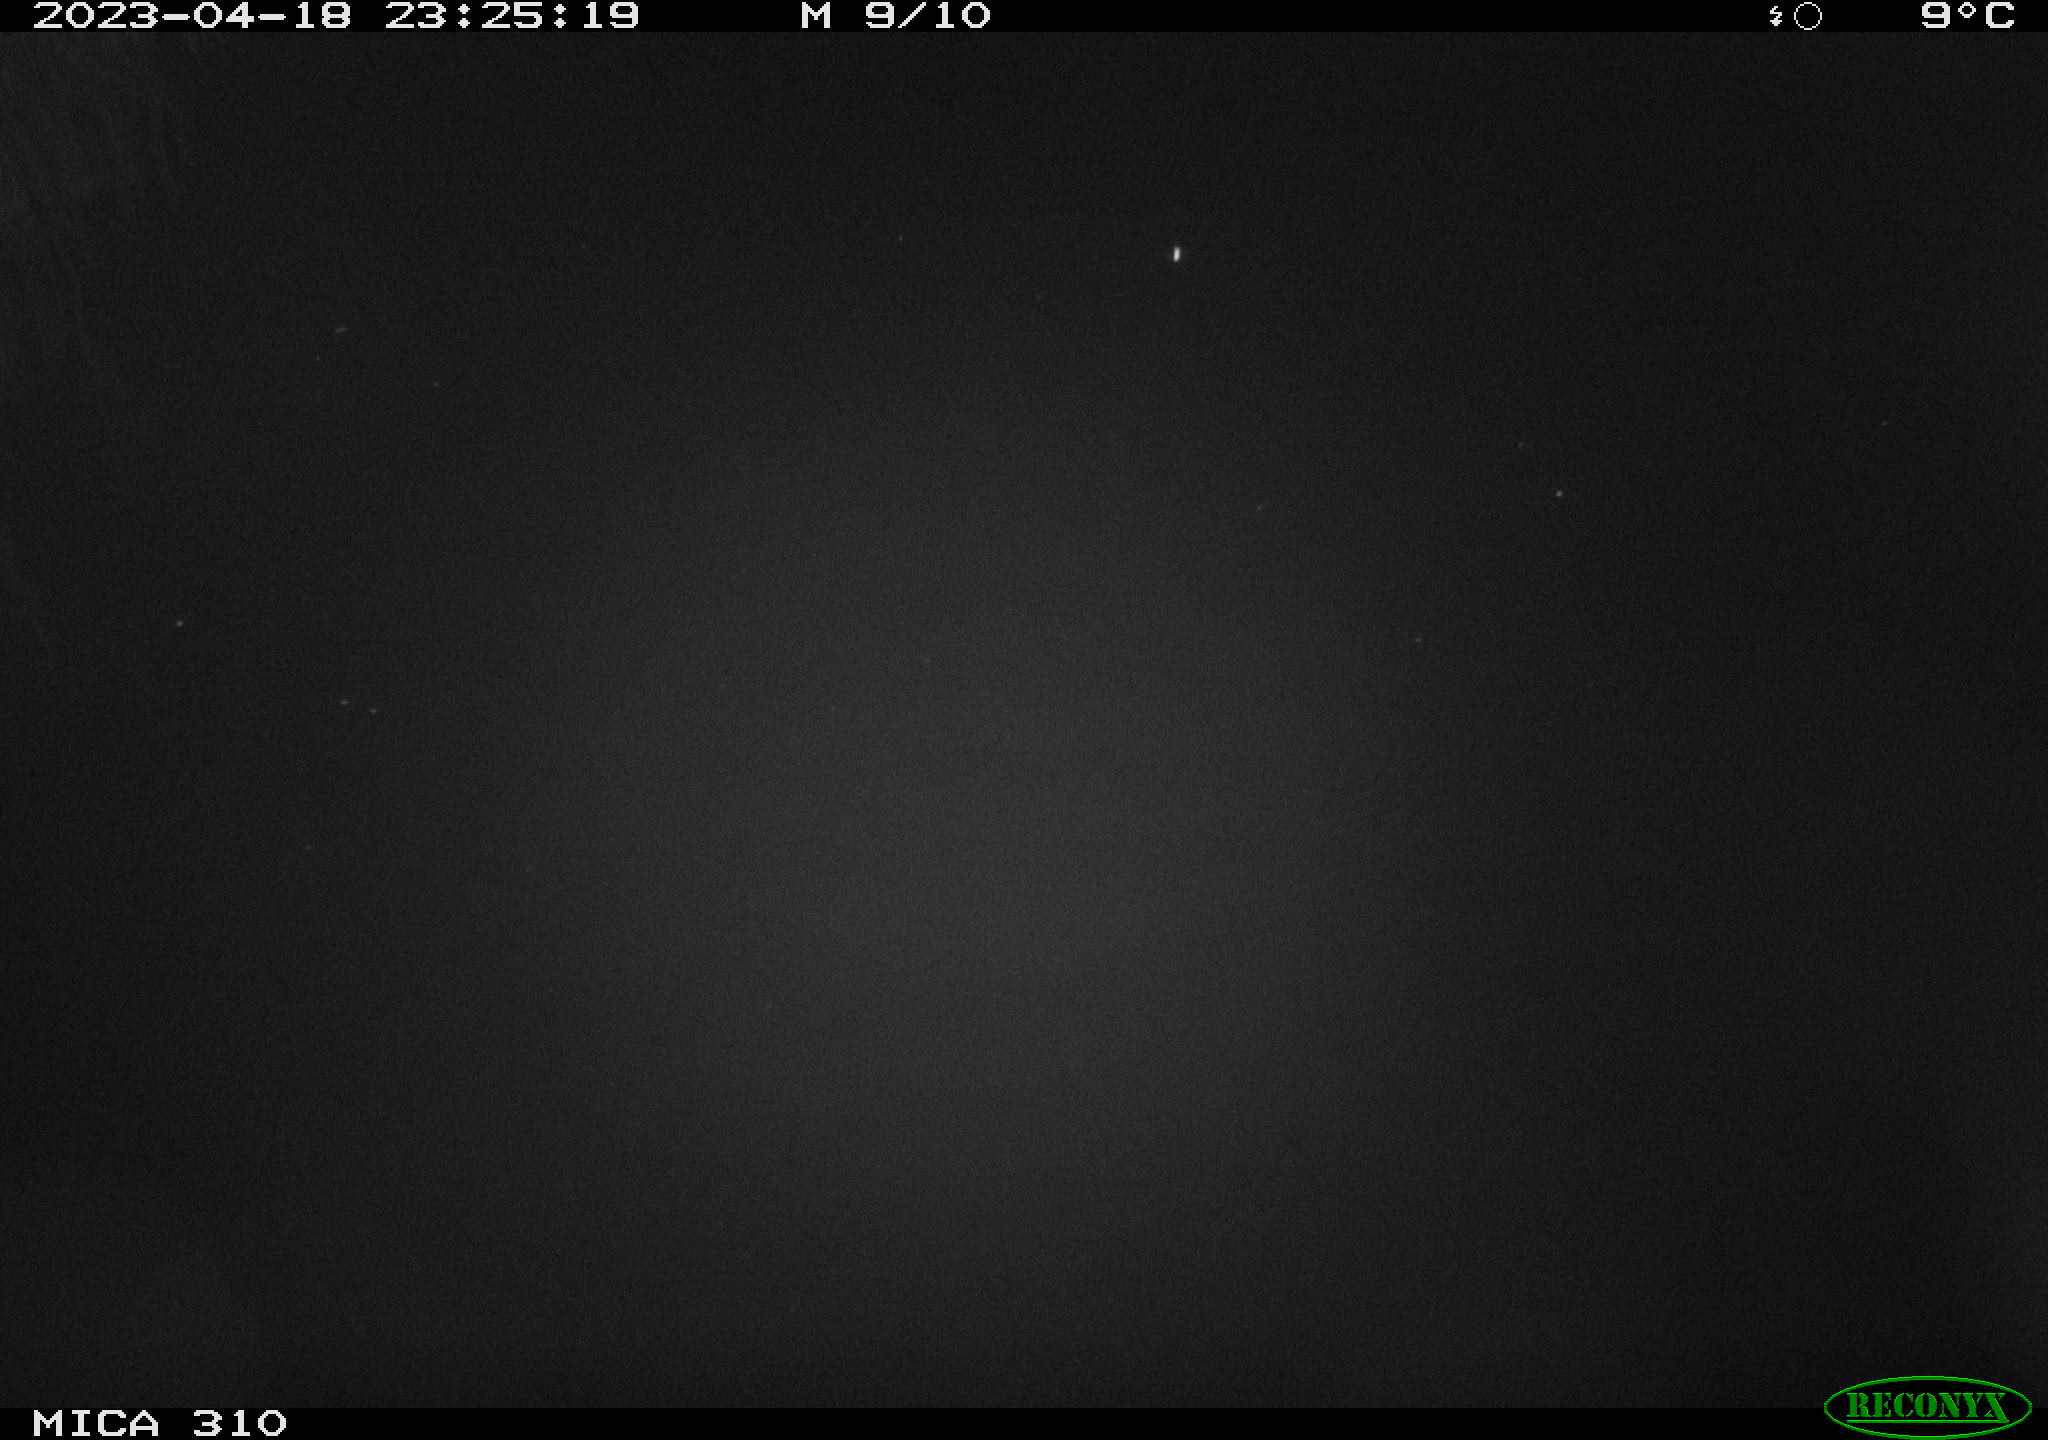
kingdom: Animalia
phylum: Chordata
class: Aves
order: Anseriformes
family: Anatidae
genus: Anas
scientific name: Anas
